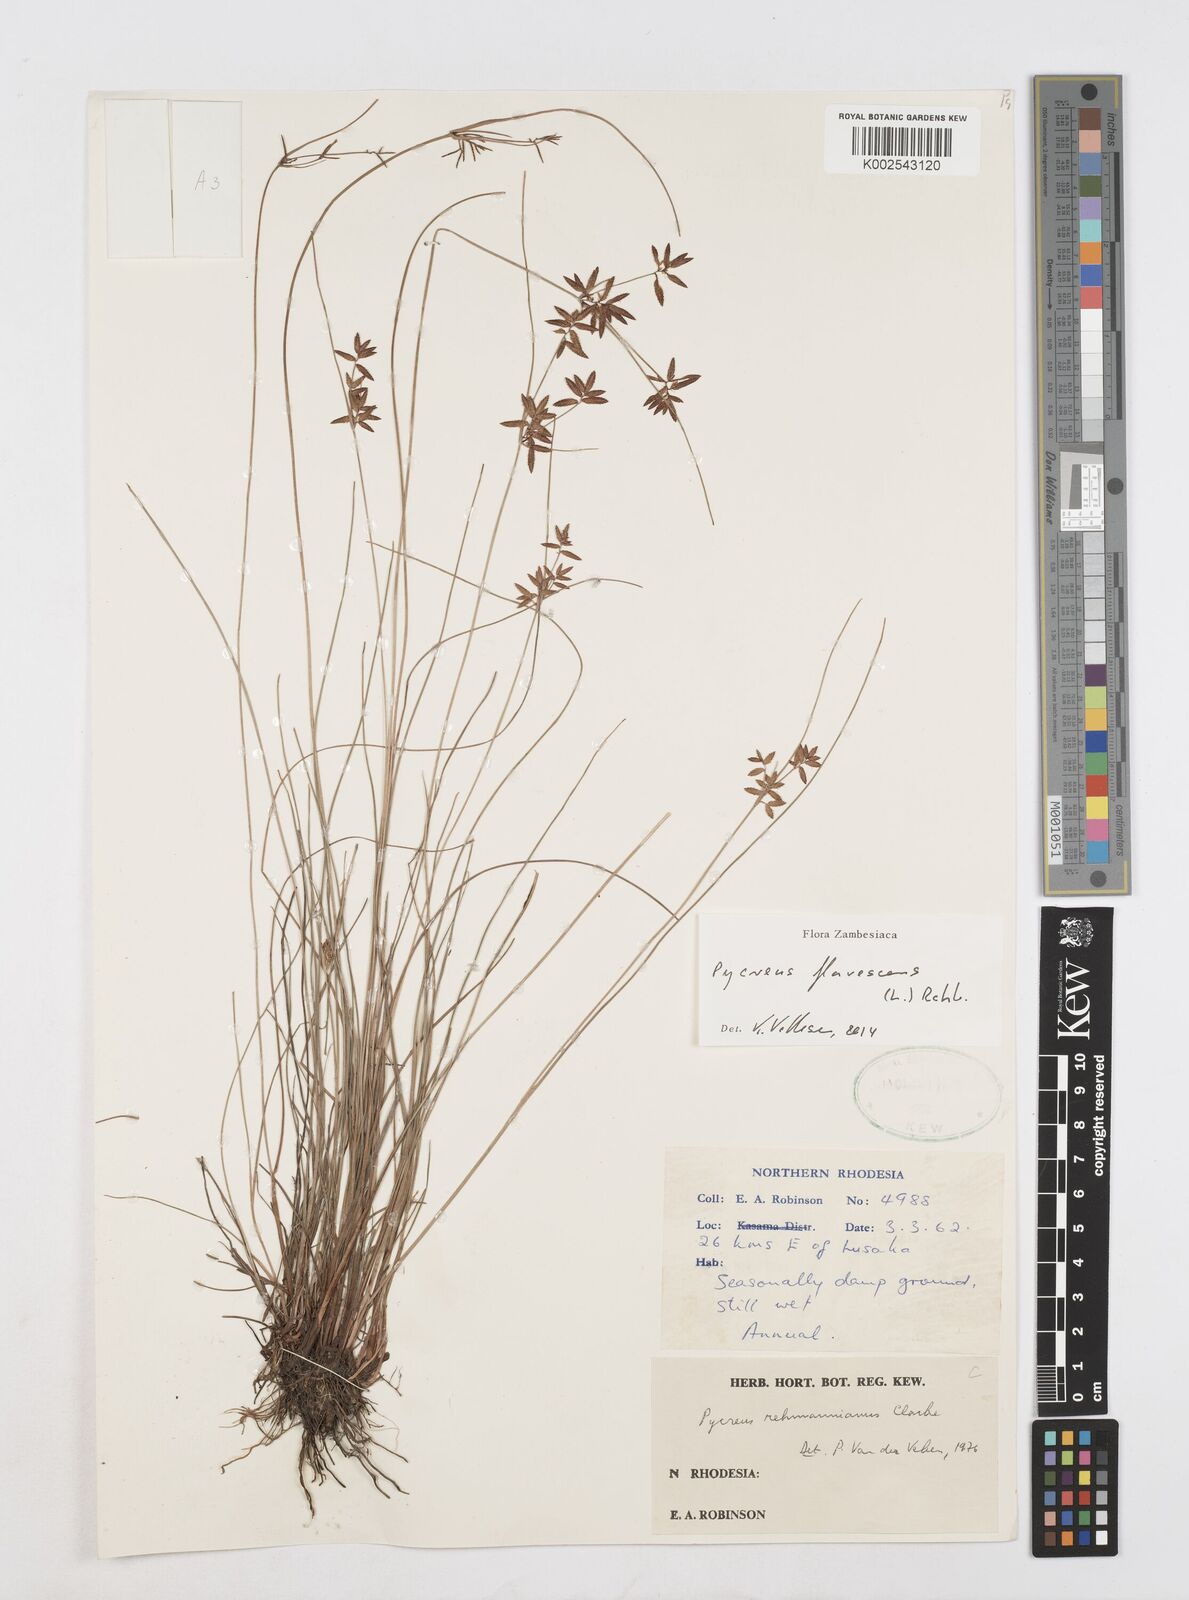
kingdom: Plantae
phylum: Tracheophyta
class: Liliopsida
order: Poales
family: Cyperaceae
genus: Cyperus
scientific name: Cyperus flavescens
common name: Yellow galingale
